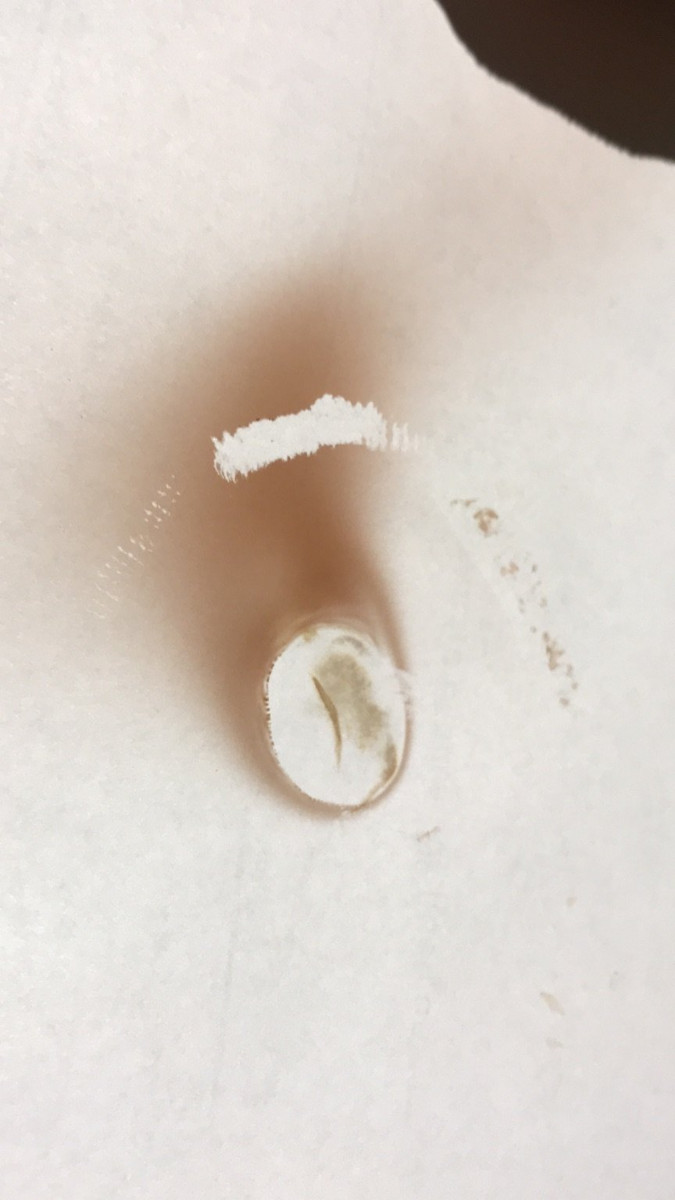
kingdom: Fungi
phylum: Basidiomycota
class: Agaricomycetes
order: Boletales
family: Paxillaceae
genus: Paxillus
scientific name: Paxillus obscurisporus
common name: mahognisporet netbladhat
